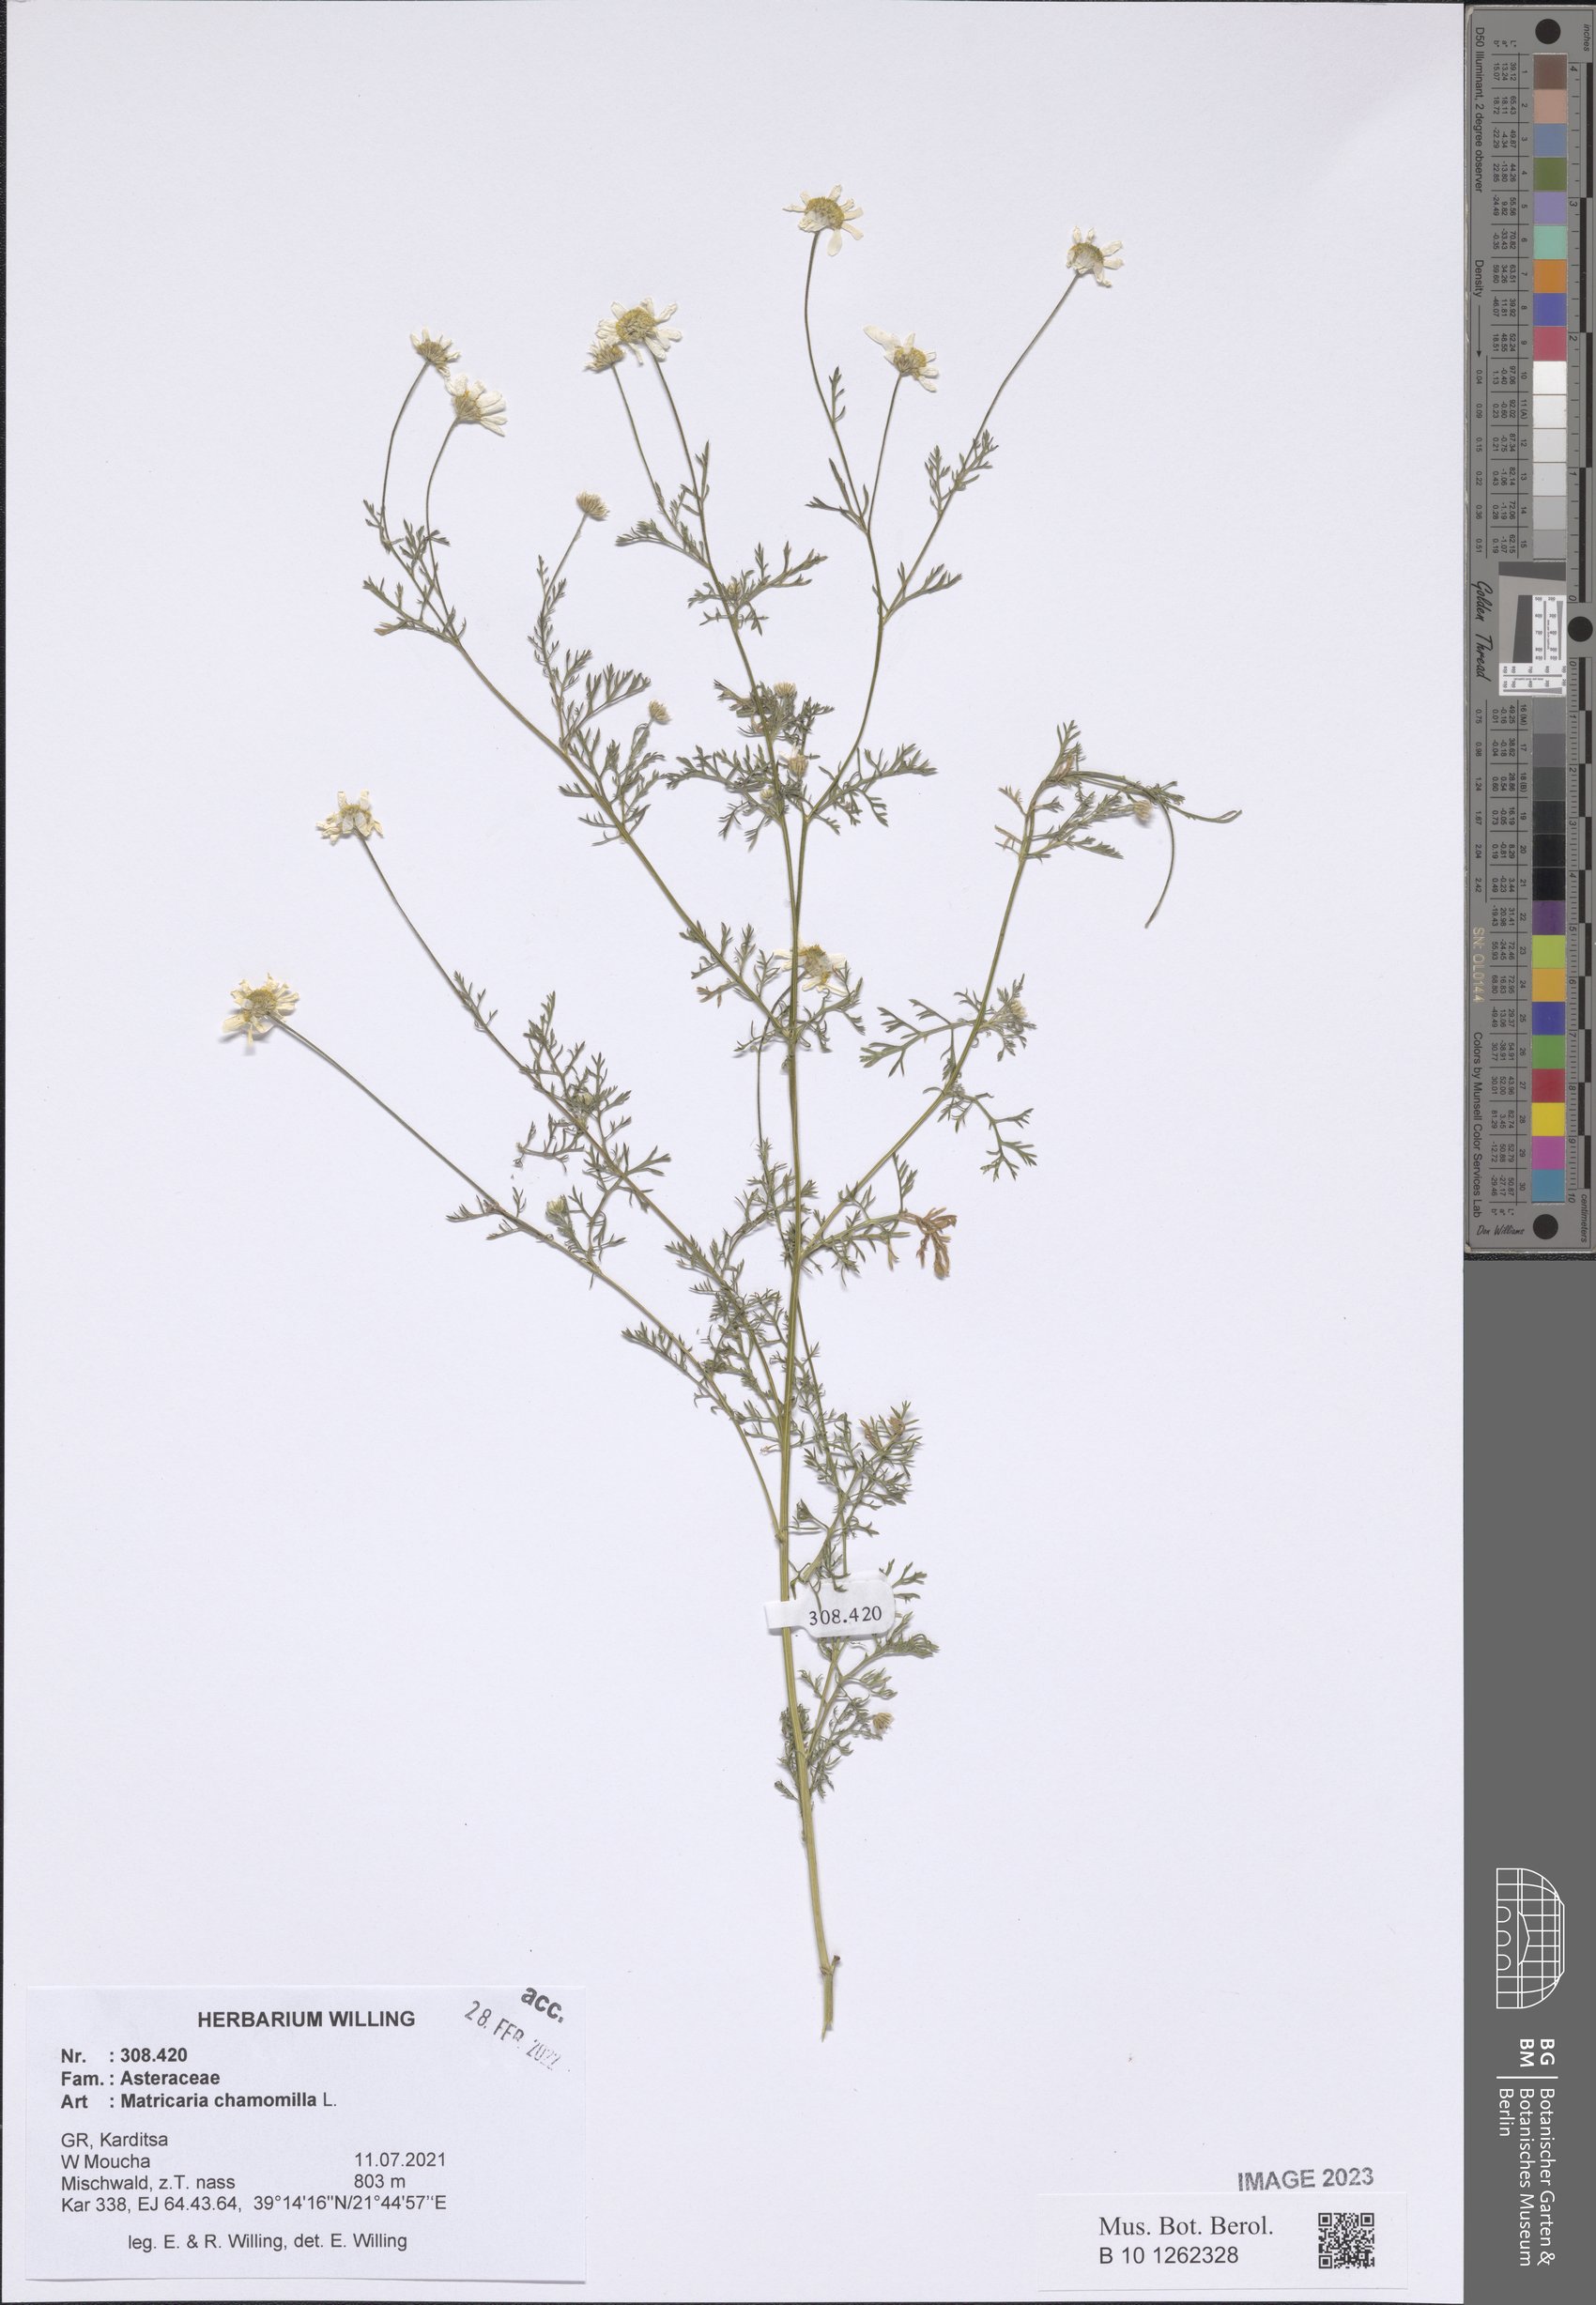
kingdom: Plantae
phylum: Tracheophyta
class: Magnoliopsida
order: Asterales
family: Asteraceae
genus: Matricaria
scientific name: Matricaria chamomilla
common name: Scented mayweed
